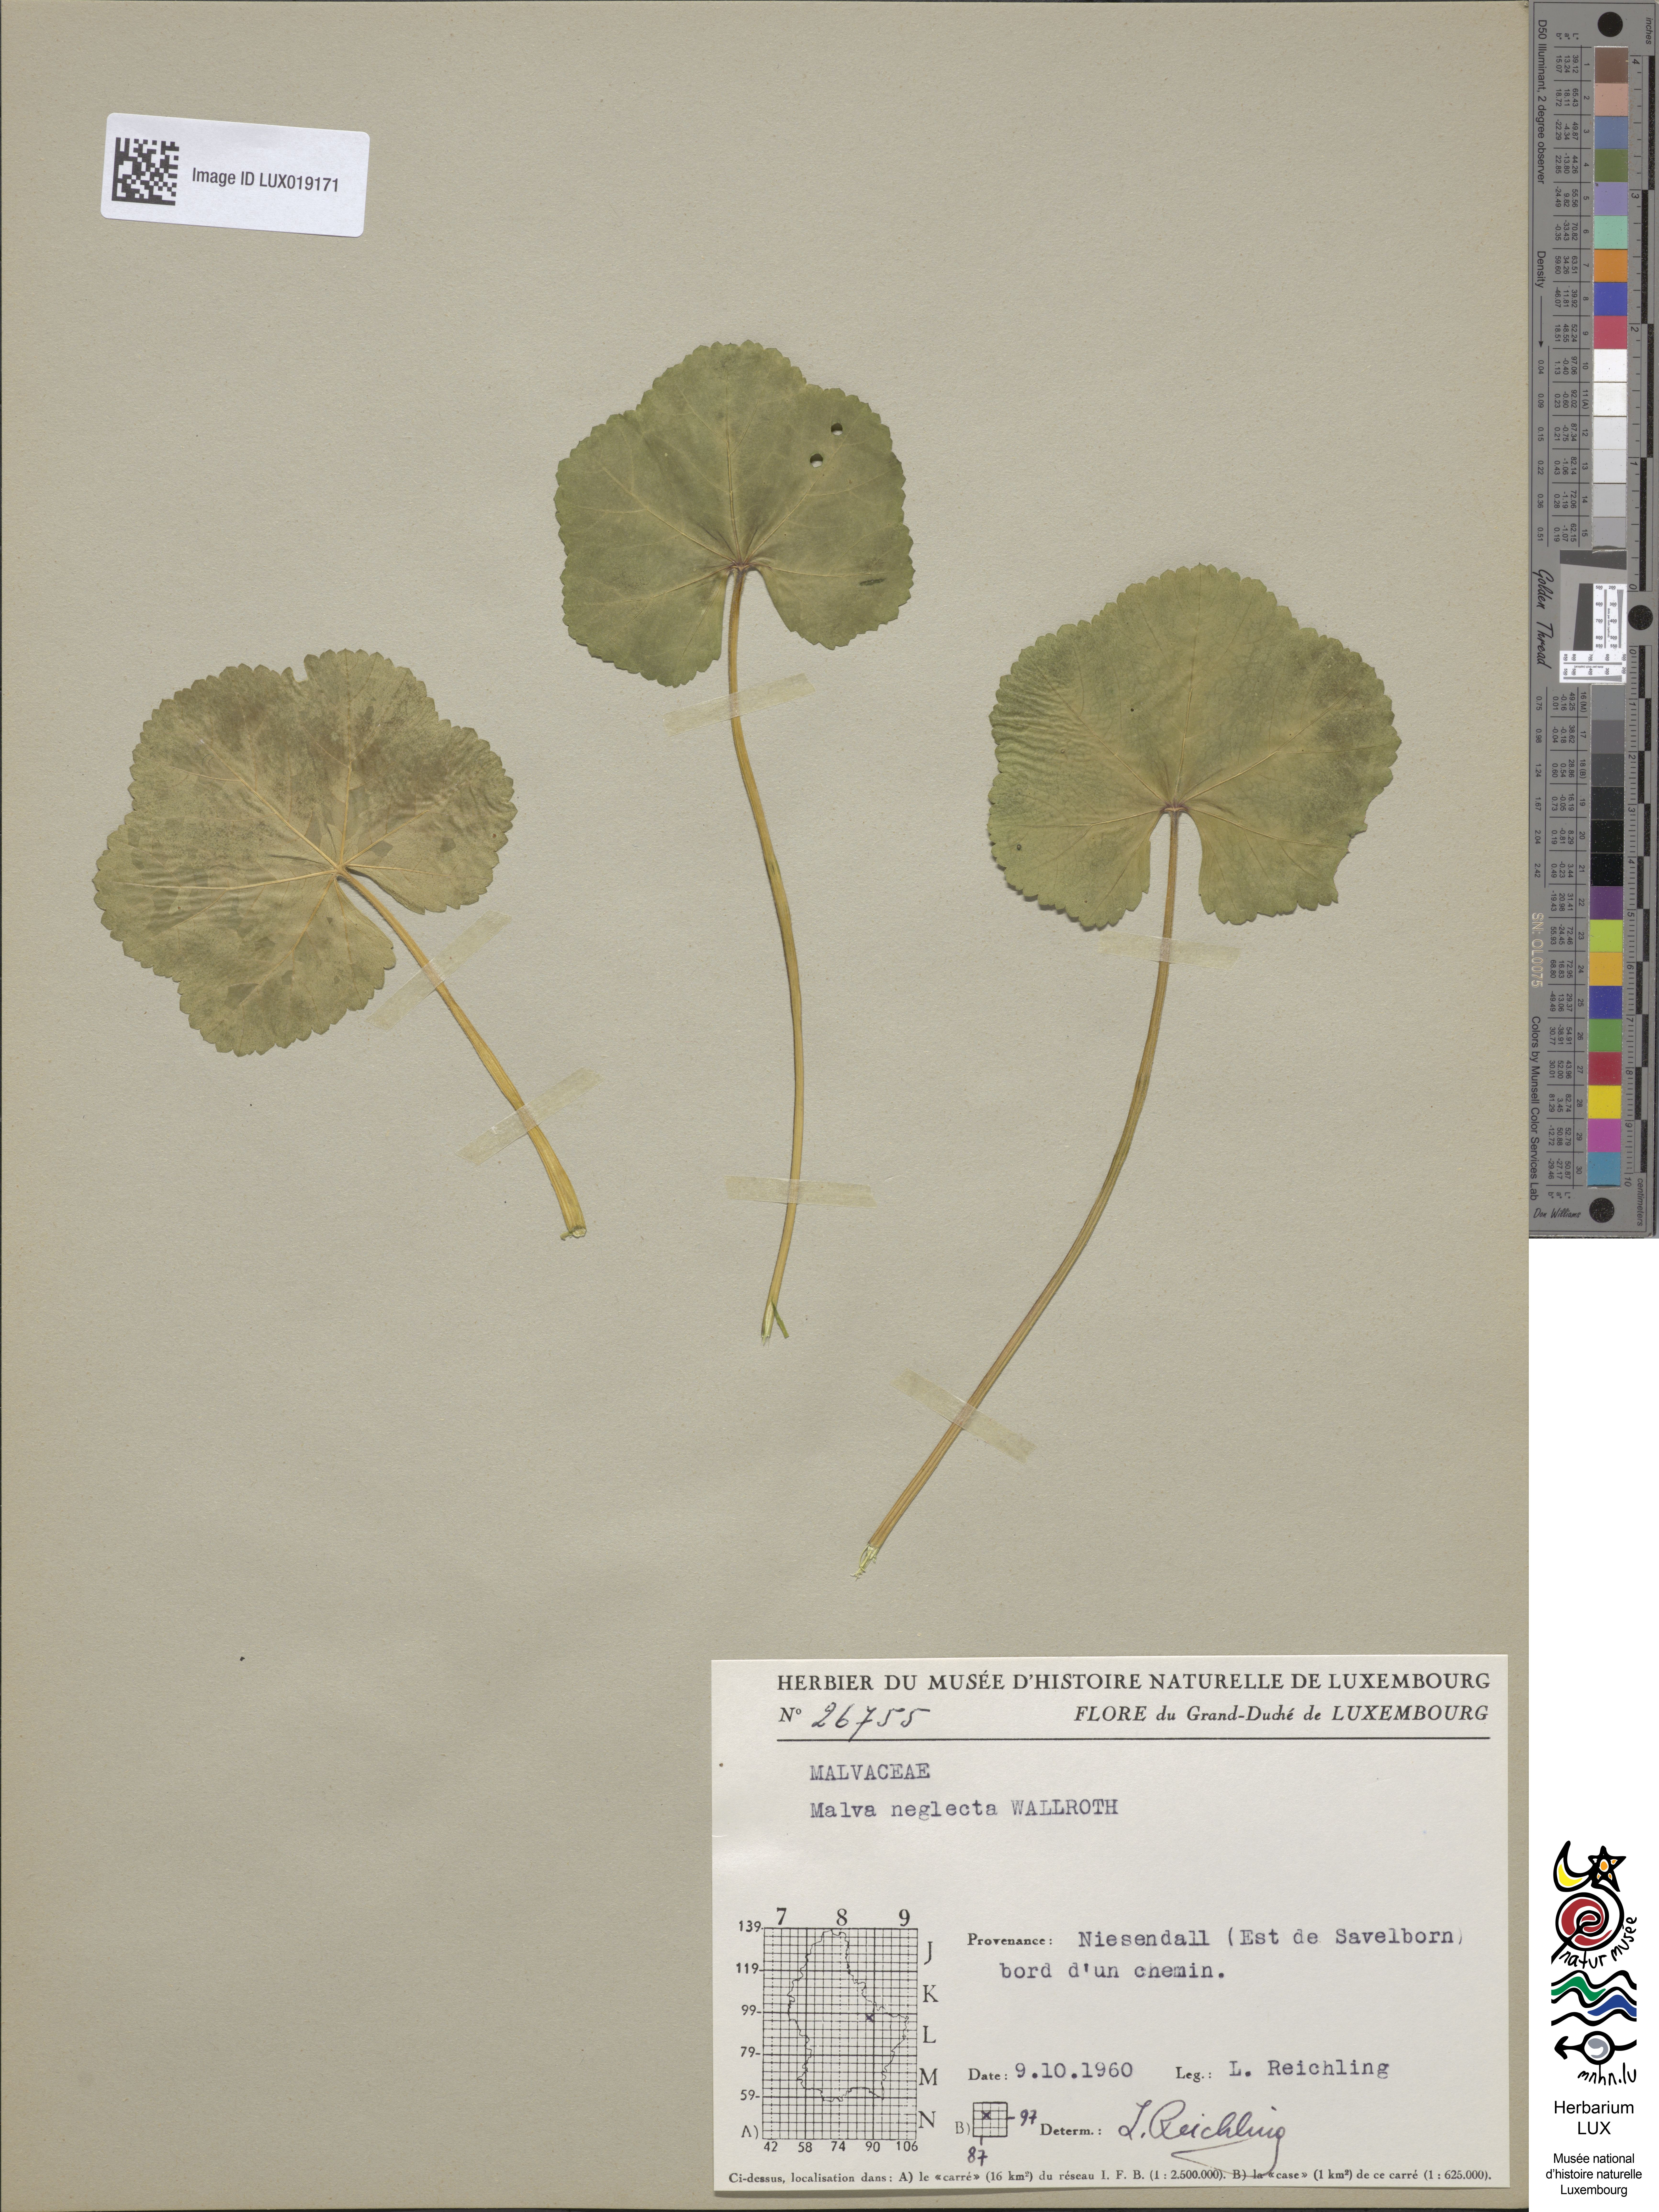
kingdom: Plantae
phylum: Tracheophyta
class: Magnoliopsida
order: Malvales
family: Malvaceae
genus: Malva
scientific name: Malva neglecta
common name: Common mallow
